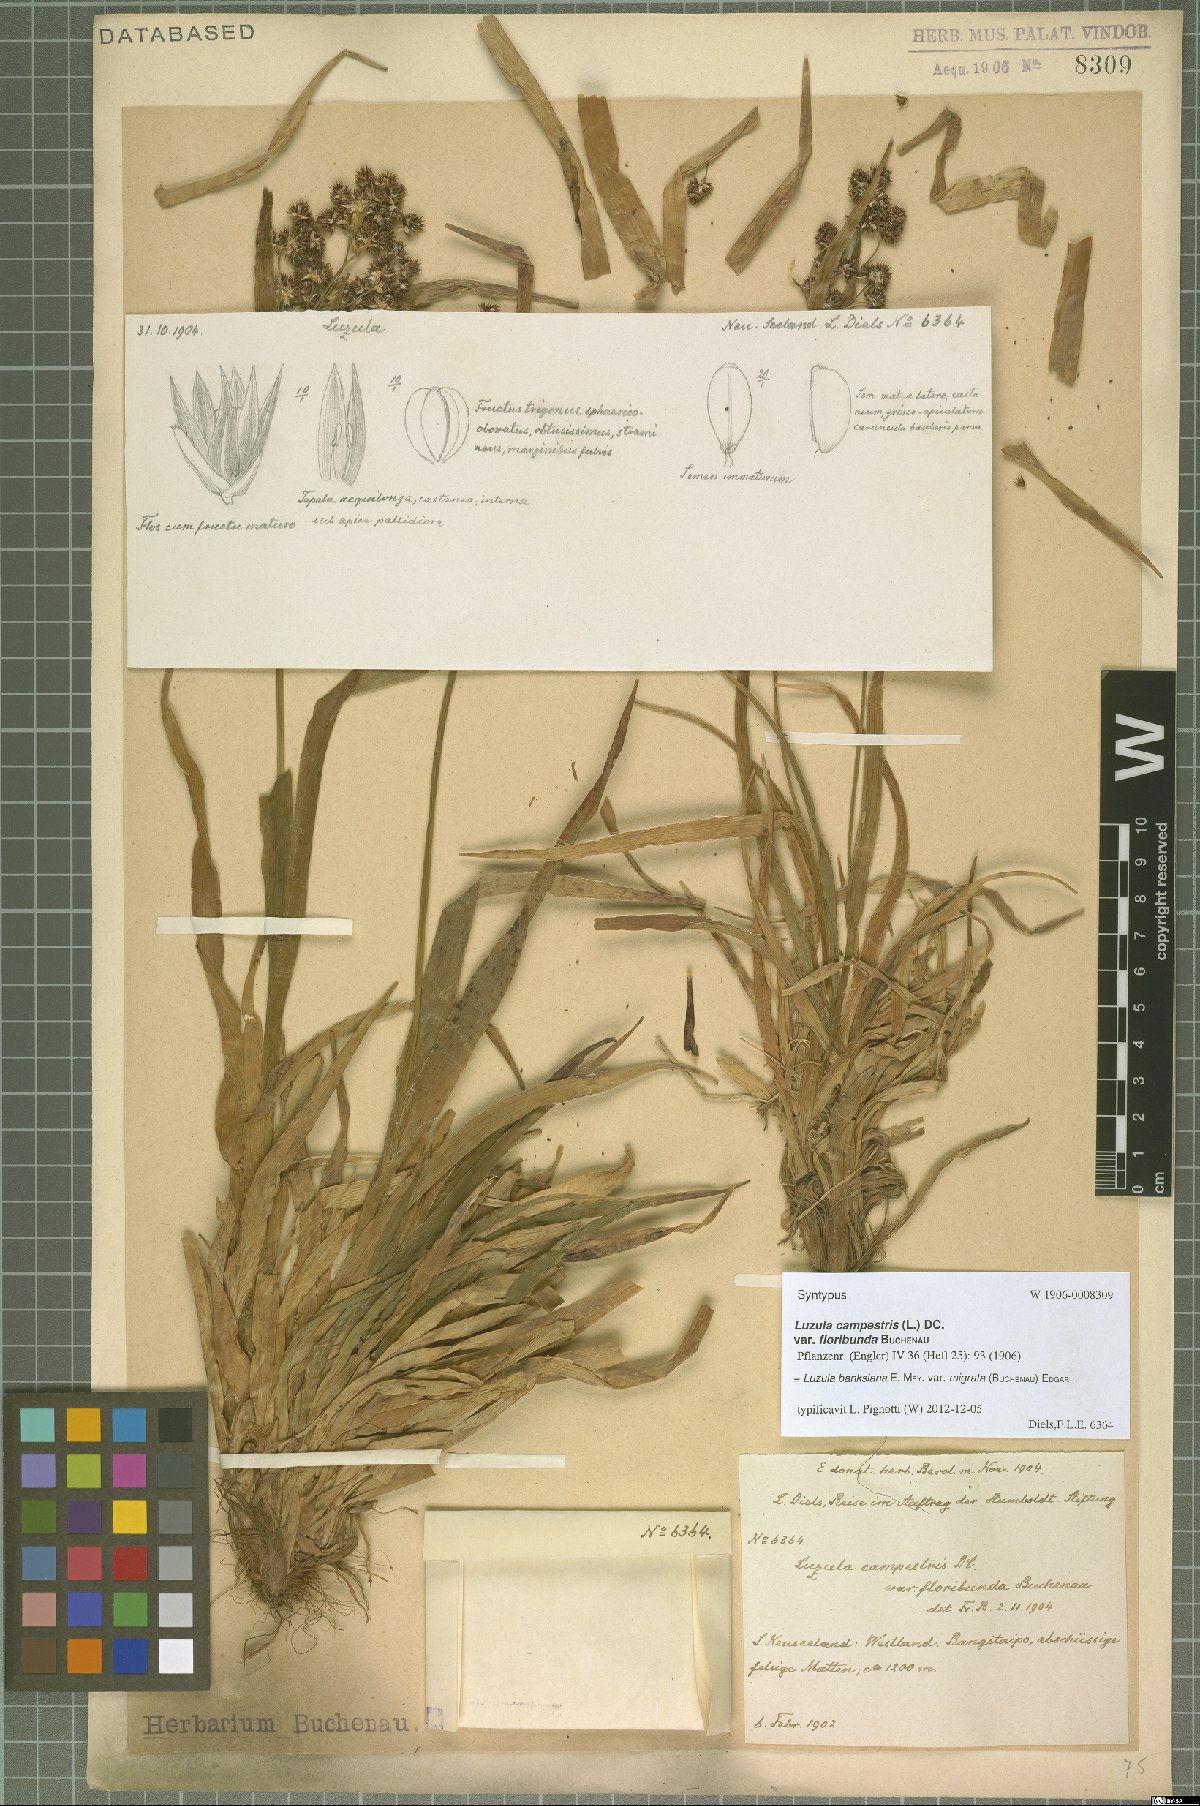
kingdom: Plantae
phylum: Tracheophyta
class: Liliopsida
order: Poales
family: Juncaceae
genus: Luzula
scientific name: Luzula banksiana
